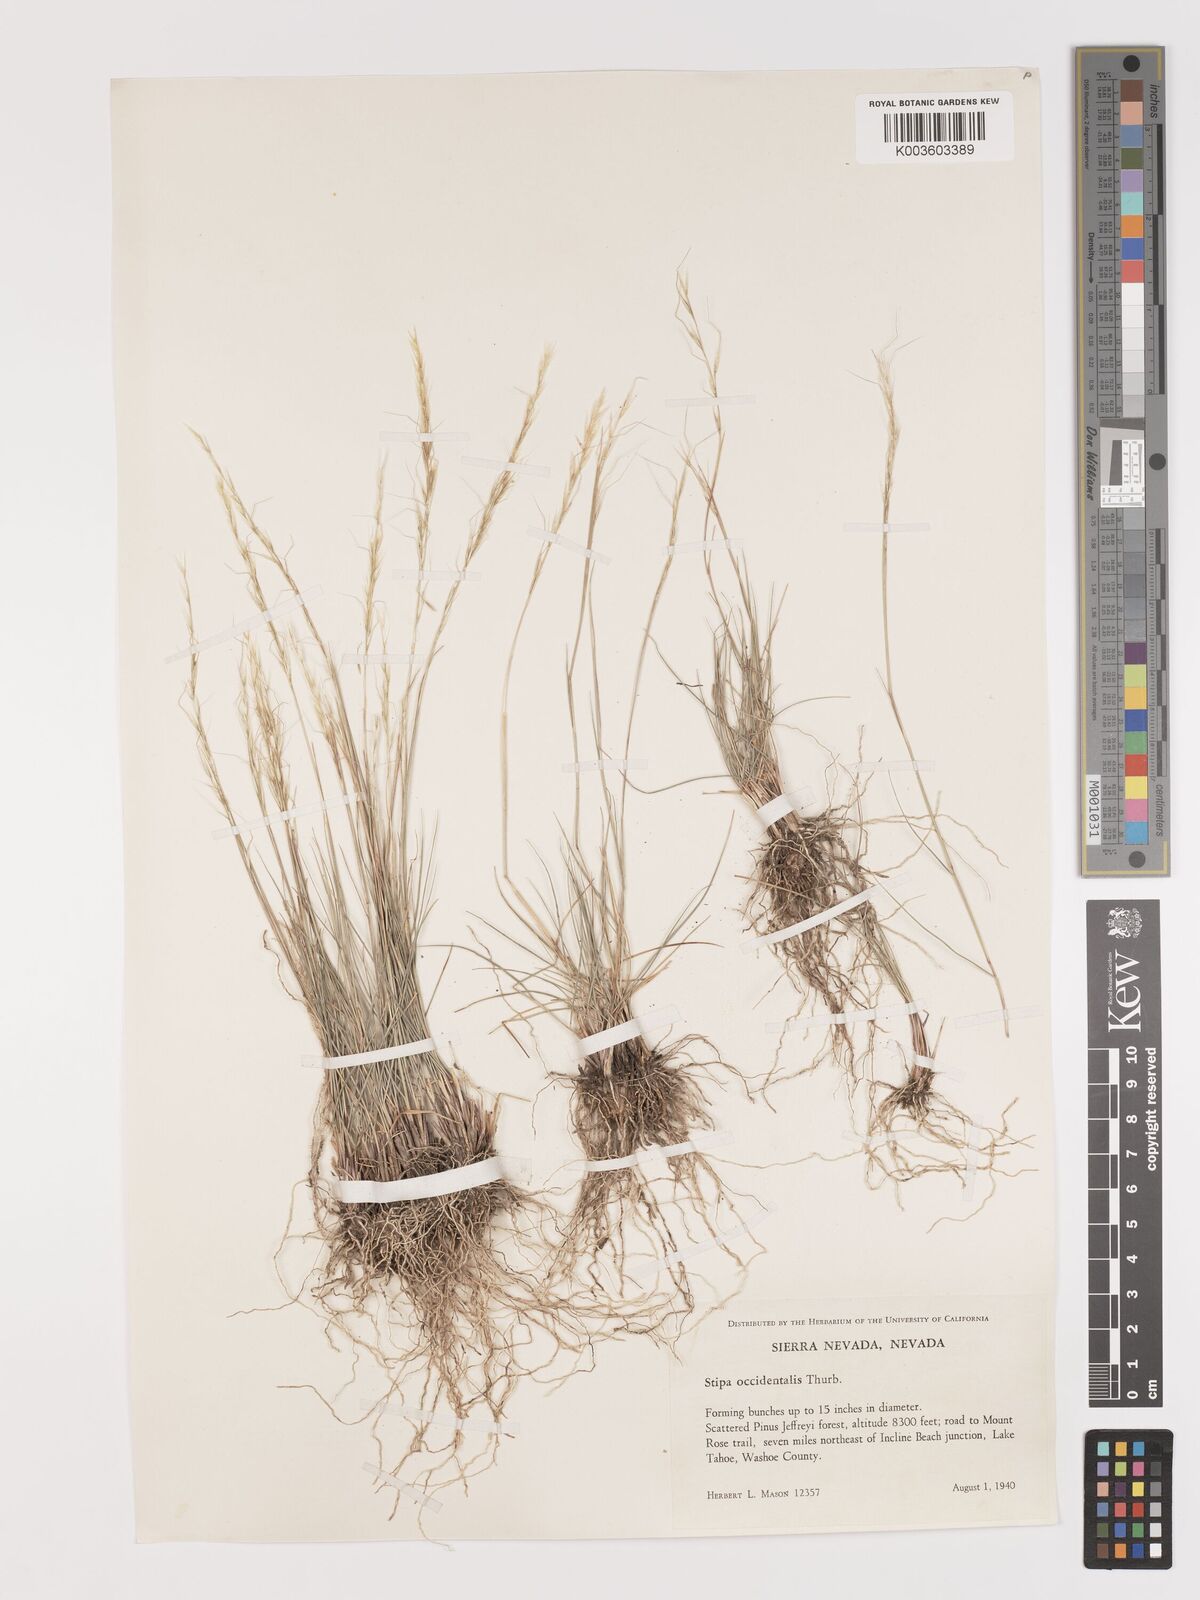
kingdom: Plantae
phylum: Tracheophyta
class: Liliopsida
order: Poales
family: Poaceae
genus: Eriocoma
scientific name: Eriocoma thurberiana
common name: Thurber's needlegrass
